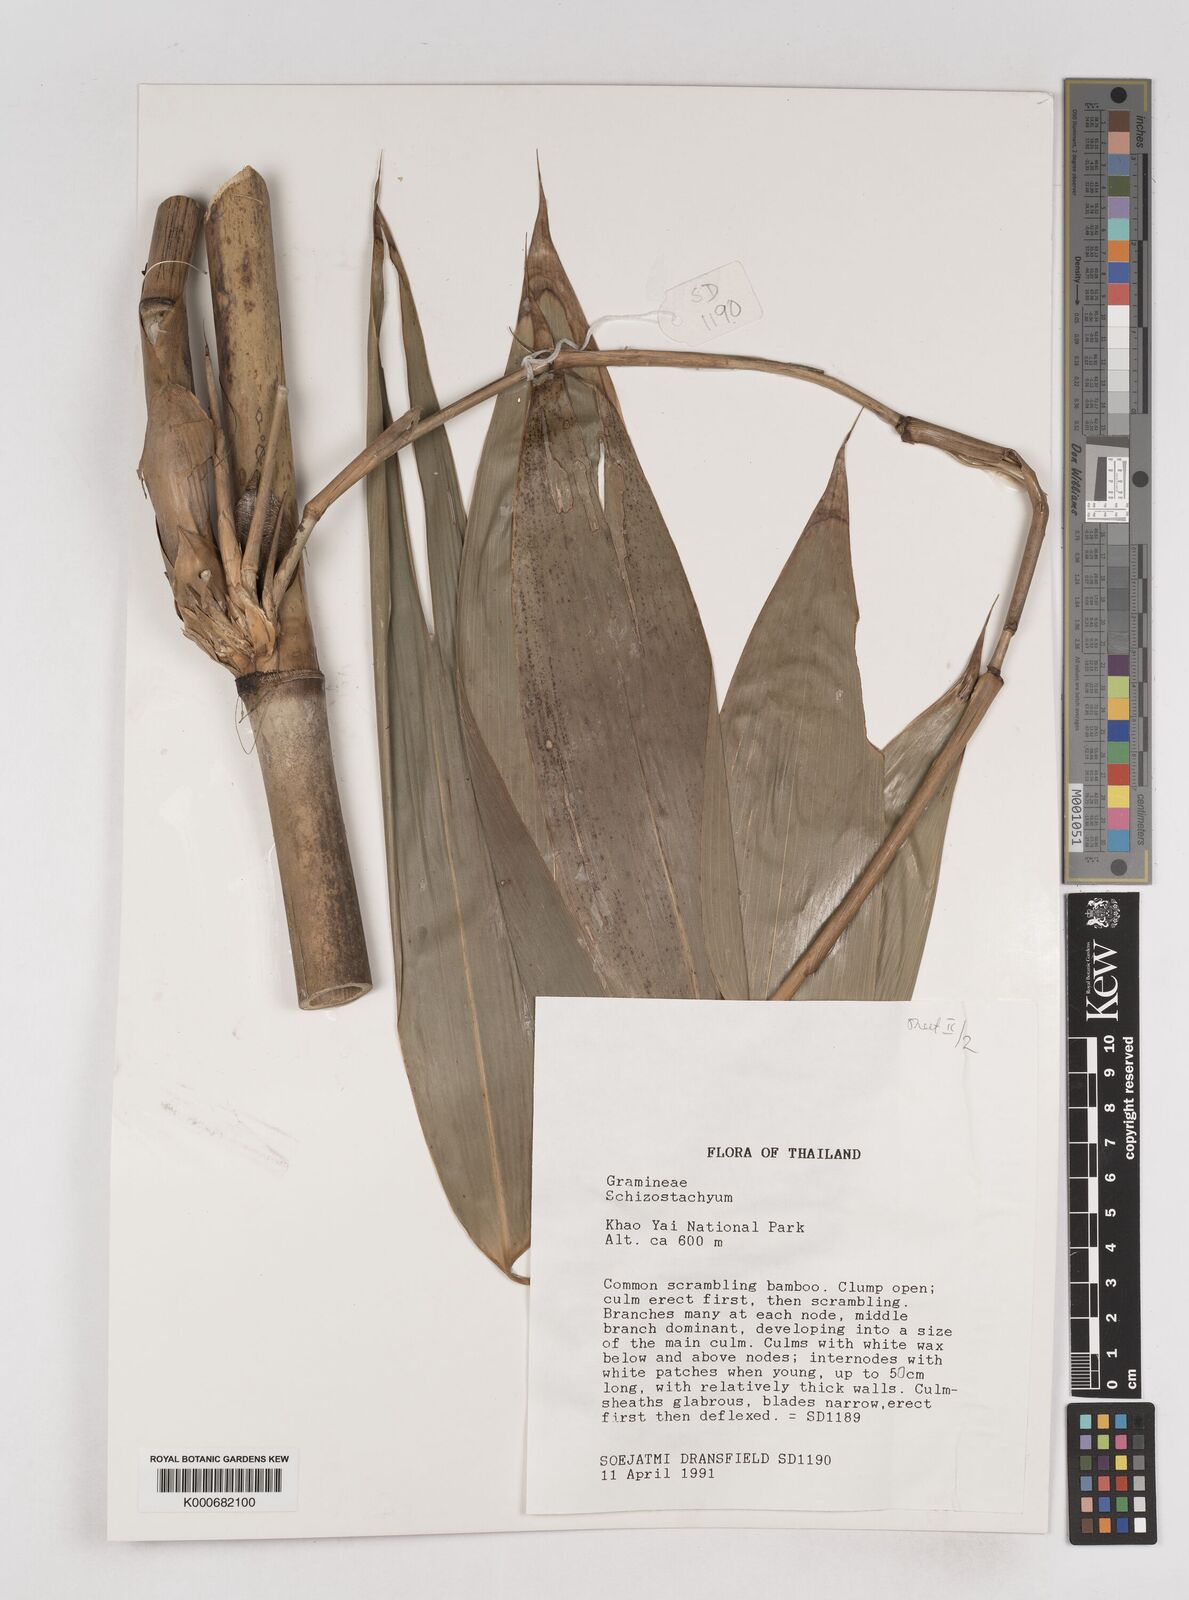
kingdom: Plantae
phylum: Tracheophyta
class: Liliopsida
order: Poales
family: Poaceae
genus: Schizostachyum
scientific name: Schizostachyum
